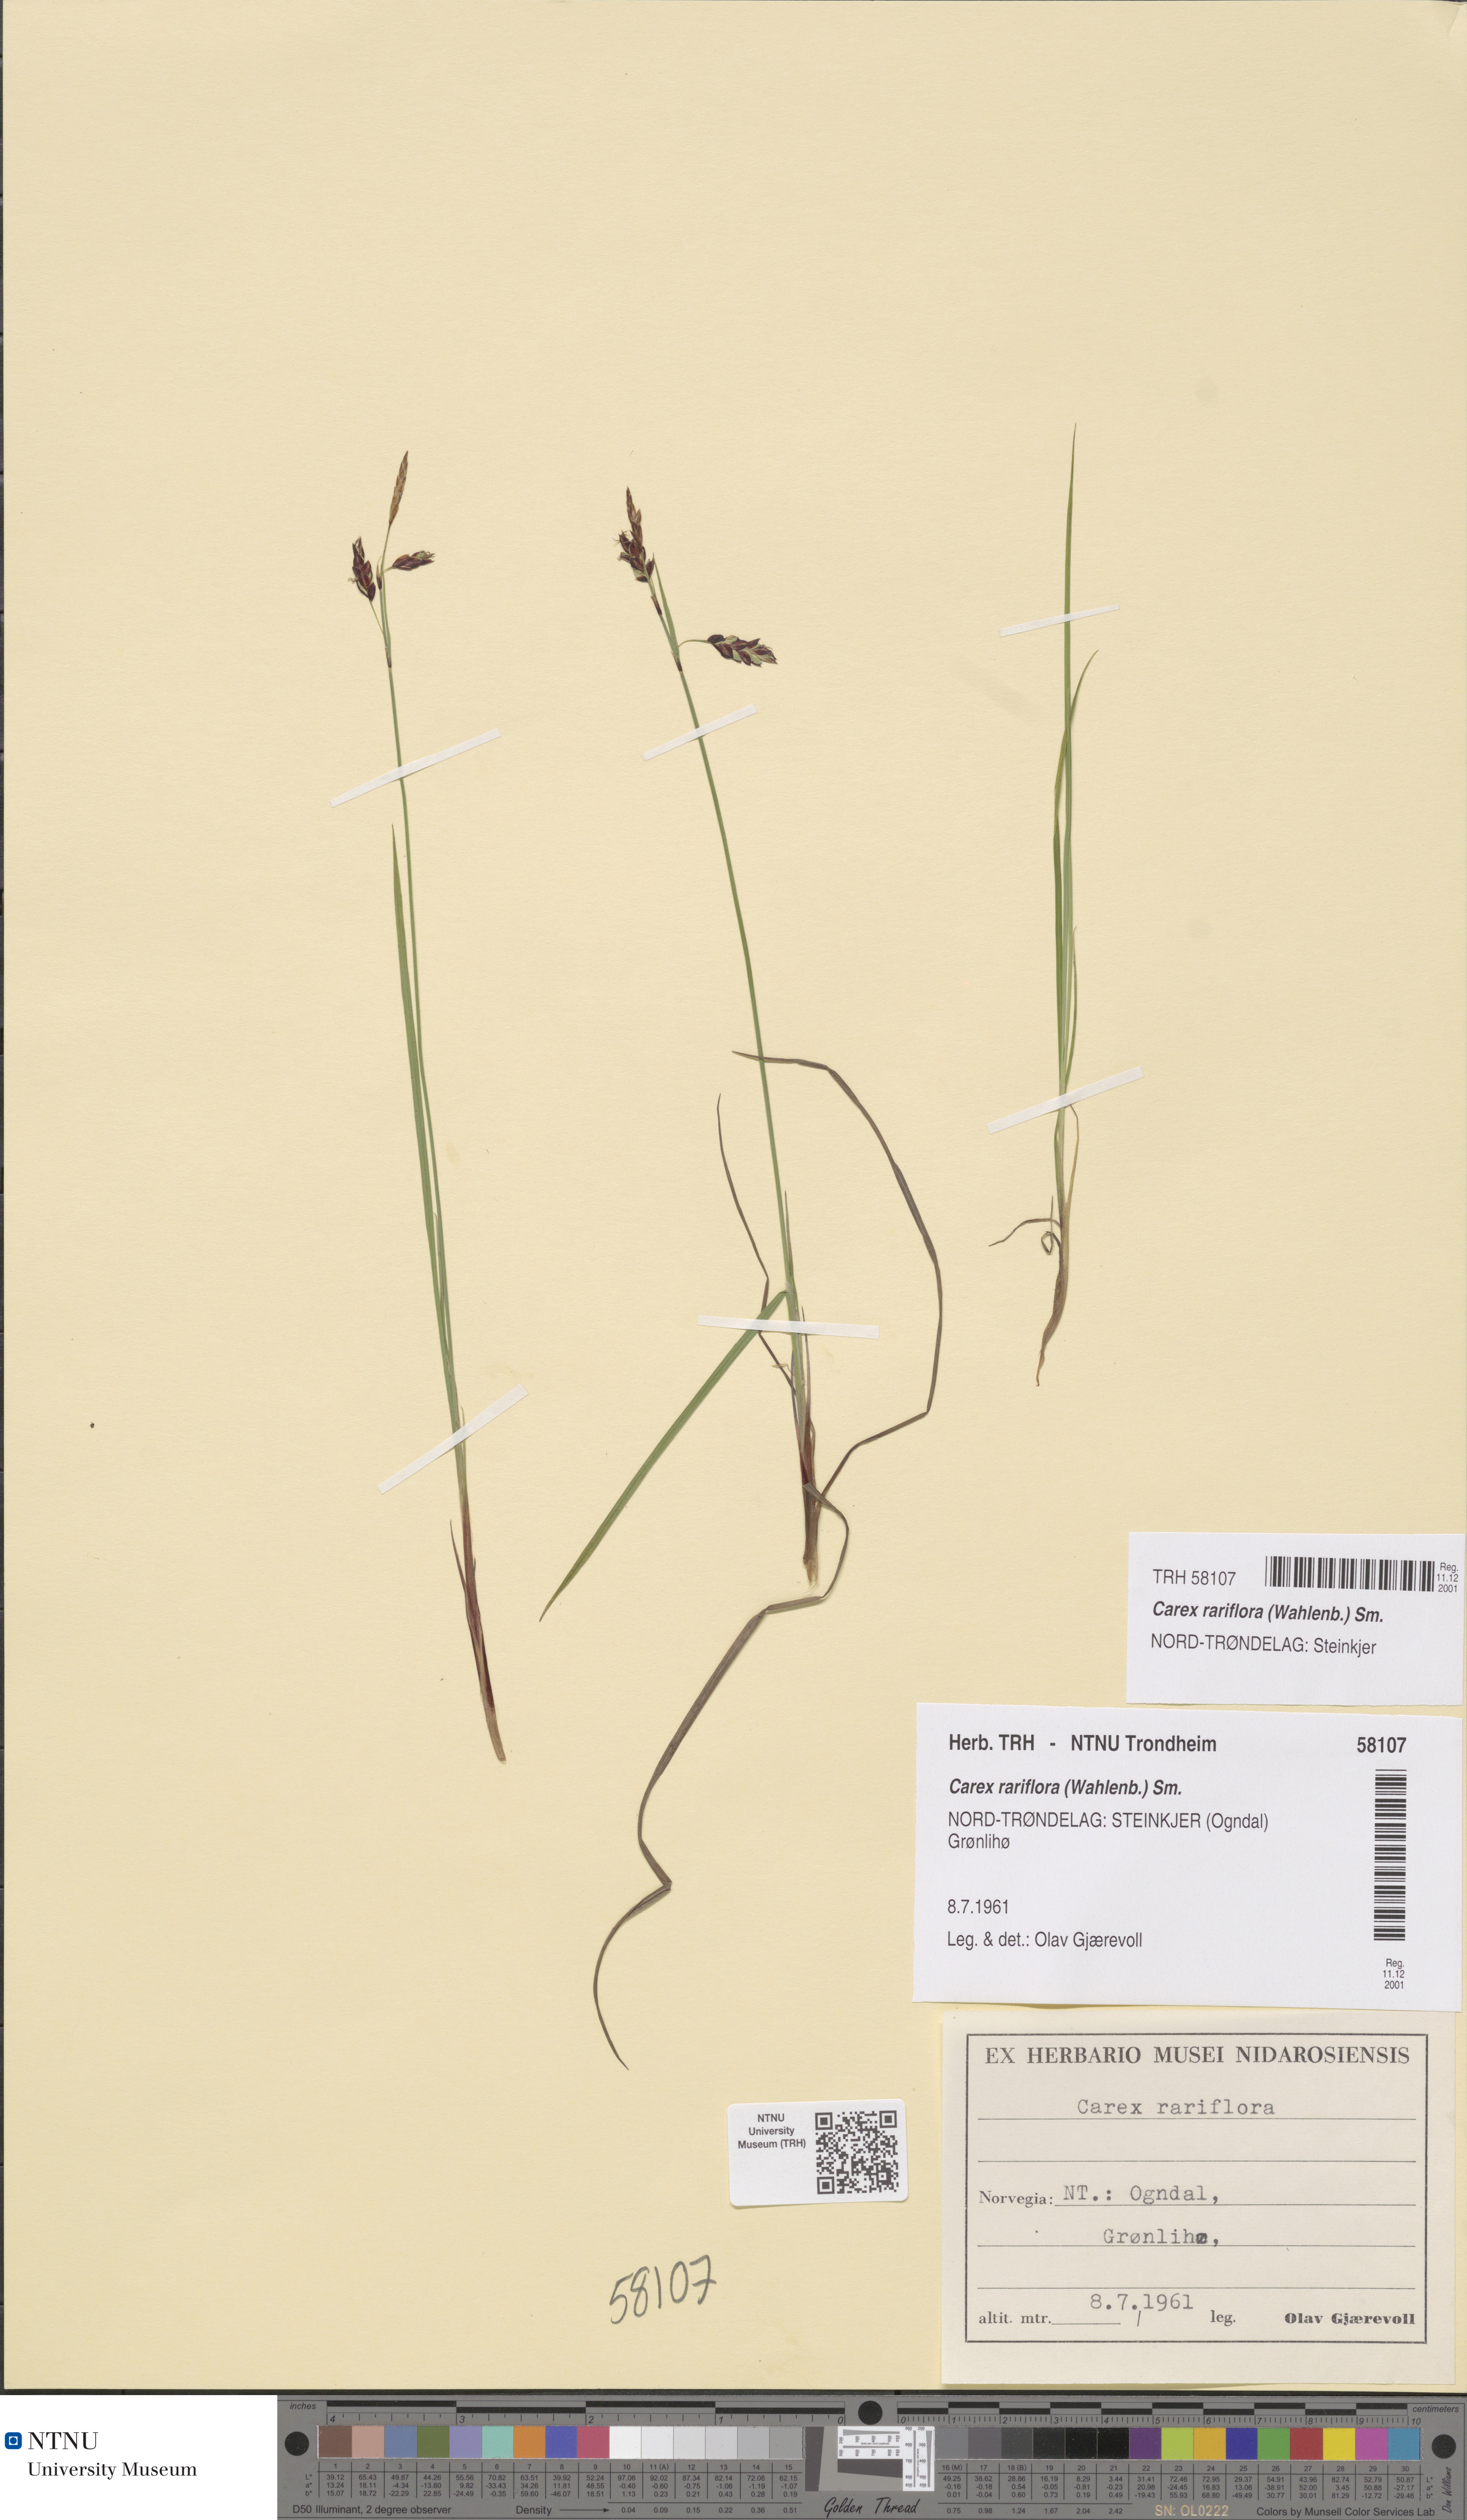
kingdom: Plantae
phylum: Tracheophyta
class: Liliopsida
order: Poales
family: Cyperaceae
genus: Carex
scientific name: Carex rariflora
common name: Loose-flowered alpine sedge
